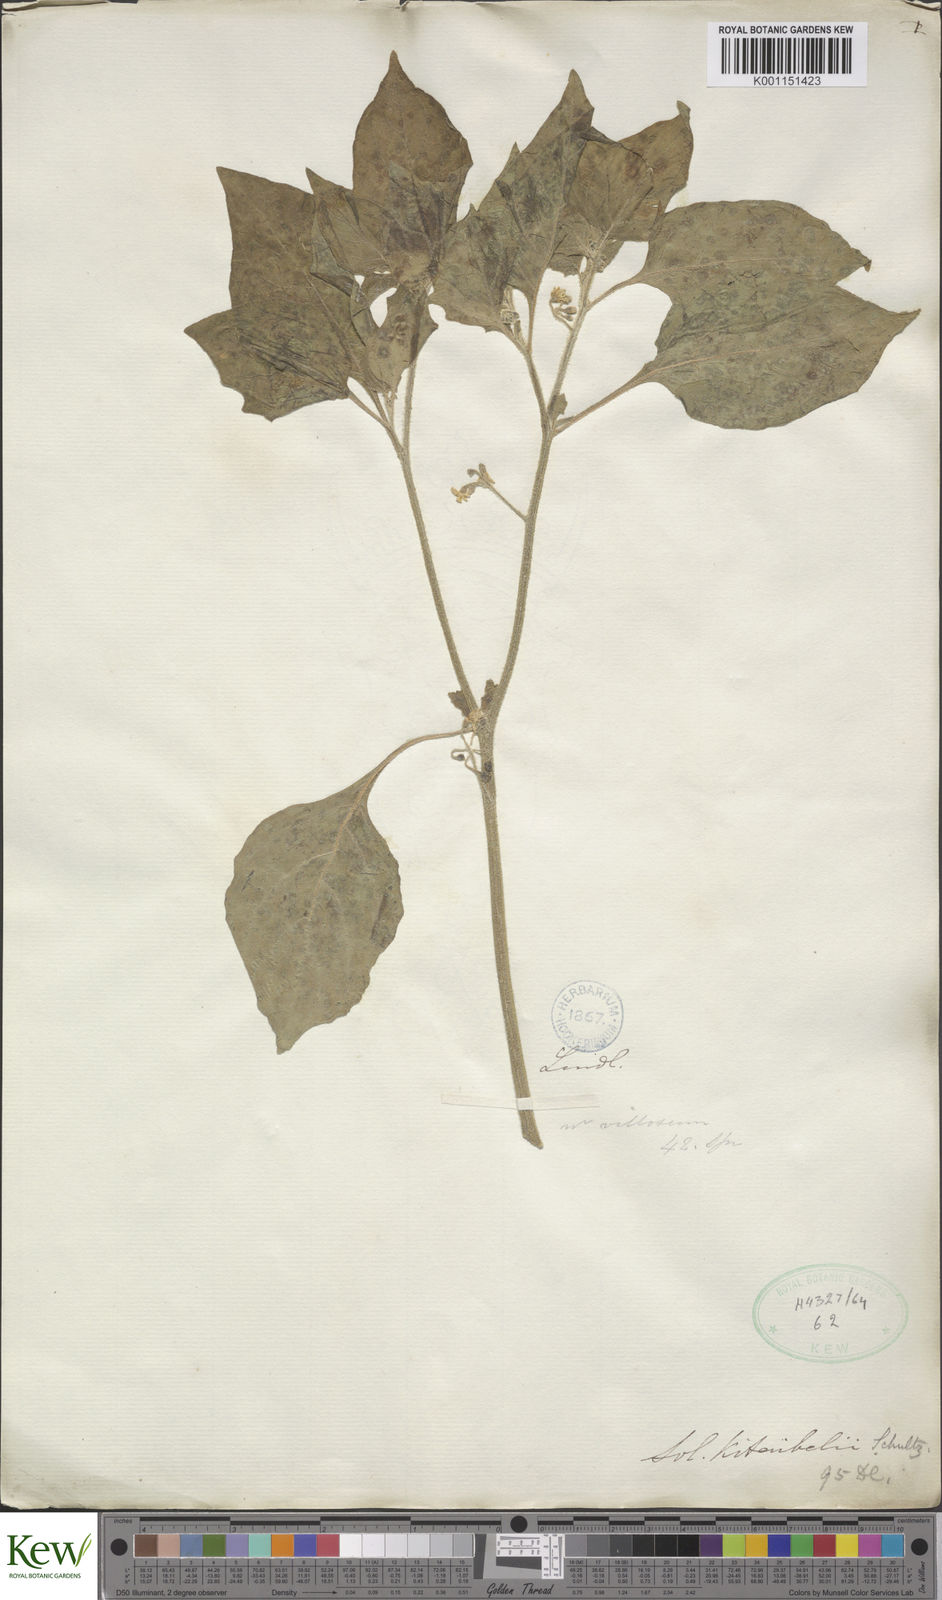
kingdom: Plantae
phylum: Tracheophyta
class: Magnoliopsida
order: Solanales
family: Solanaceae
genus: Solanum
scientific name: Solanum villosum
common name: Red nightshade
